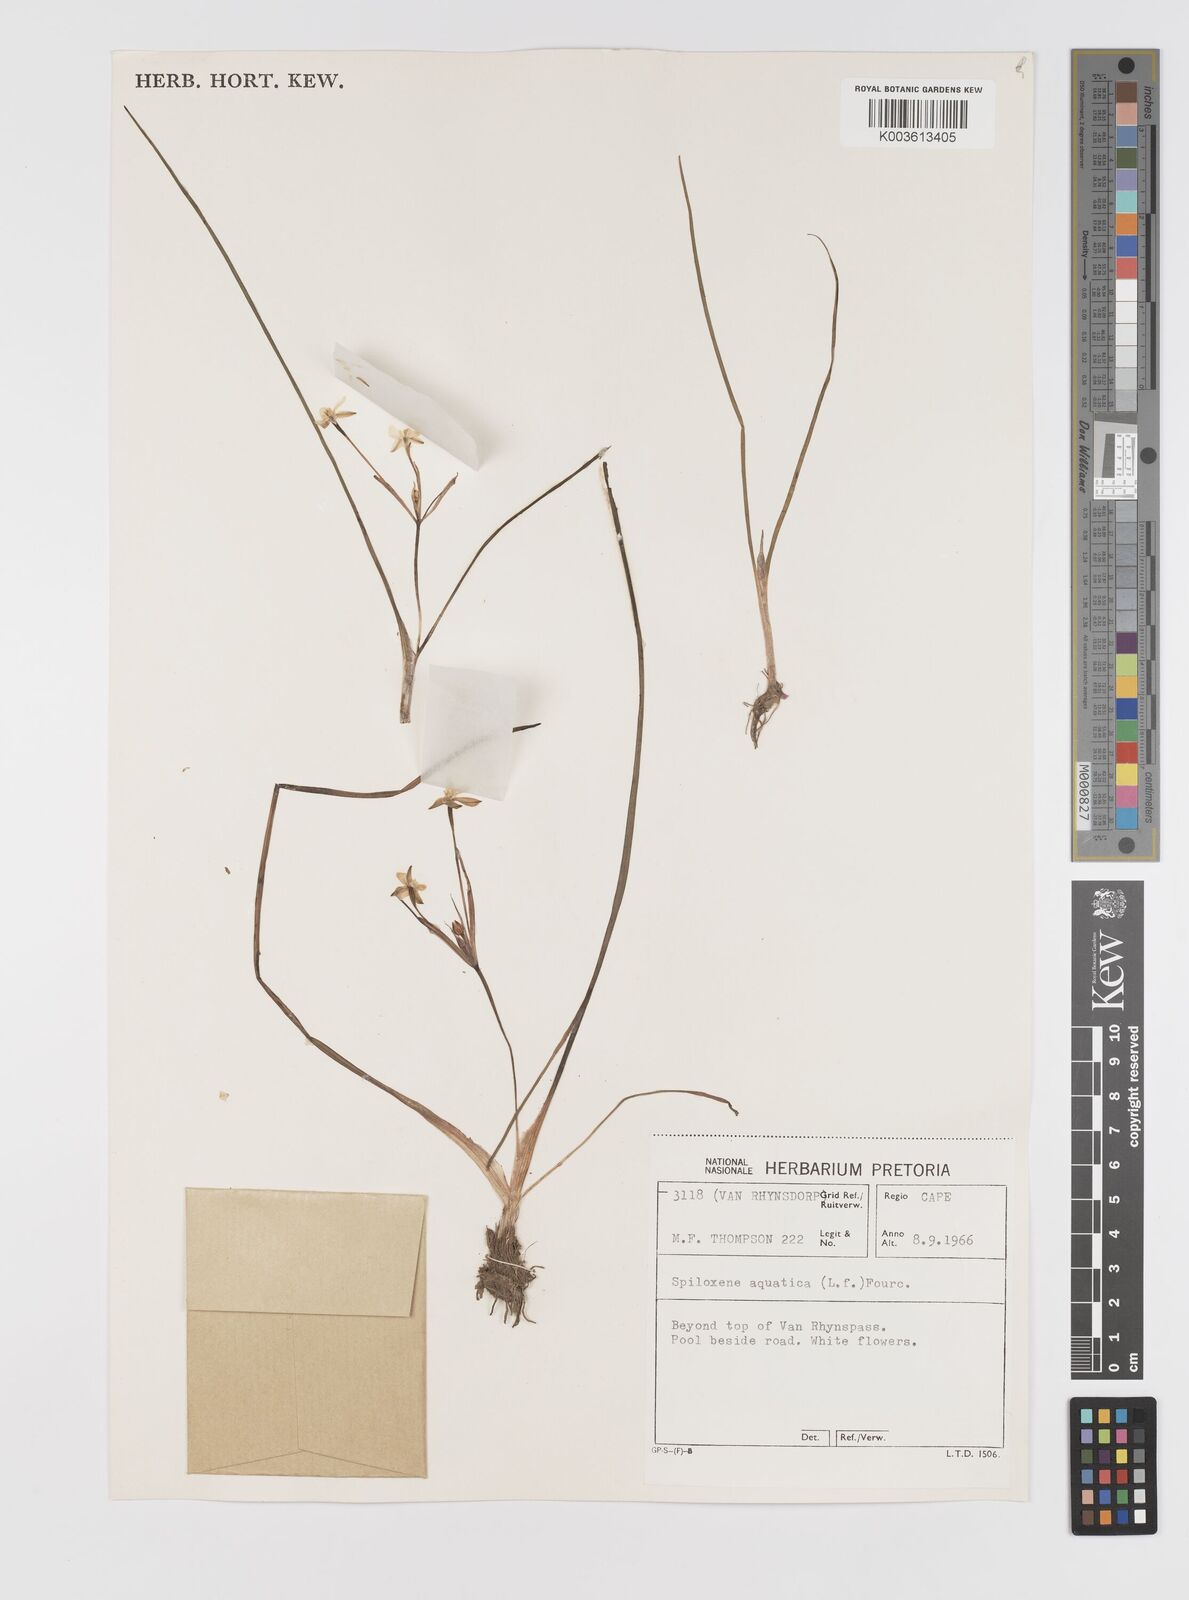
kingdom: Plantae
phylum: Tracheophyta
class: Liliopsida
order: Asparagales
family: Hypoxidaceae
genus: Pauridia
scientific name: Pauridia aquatica
